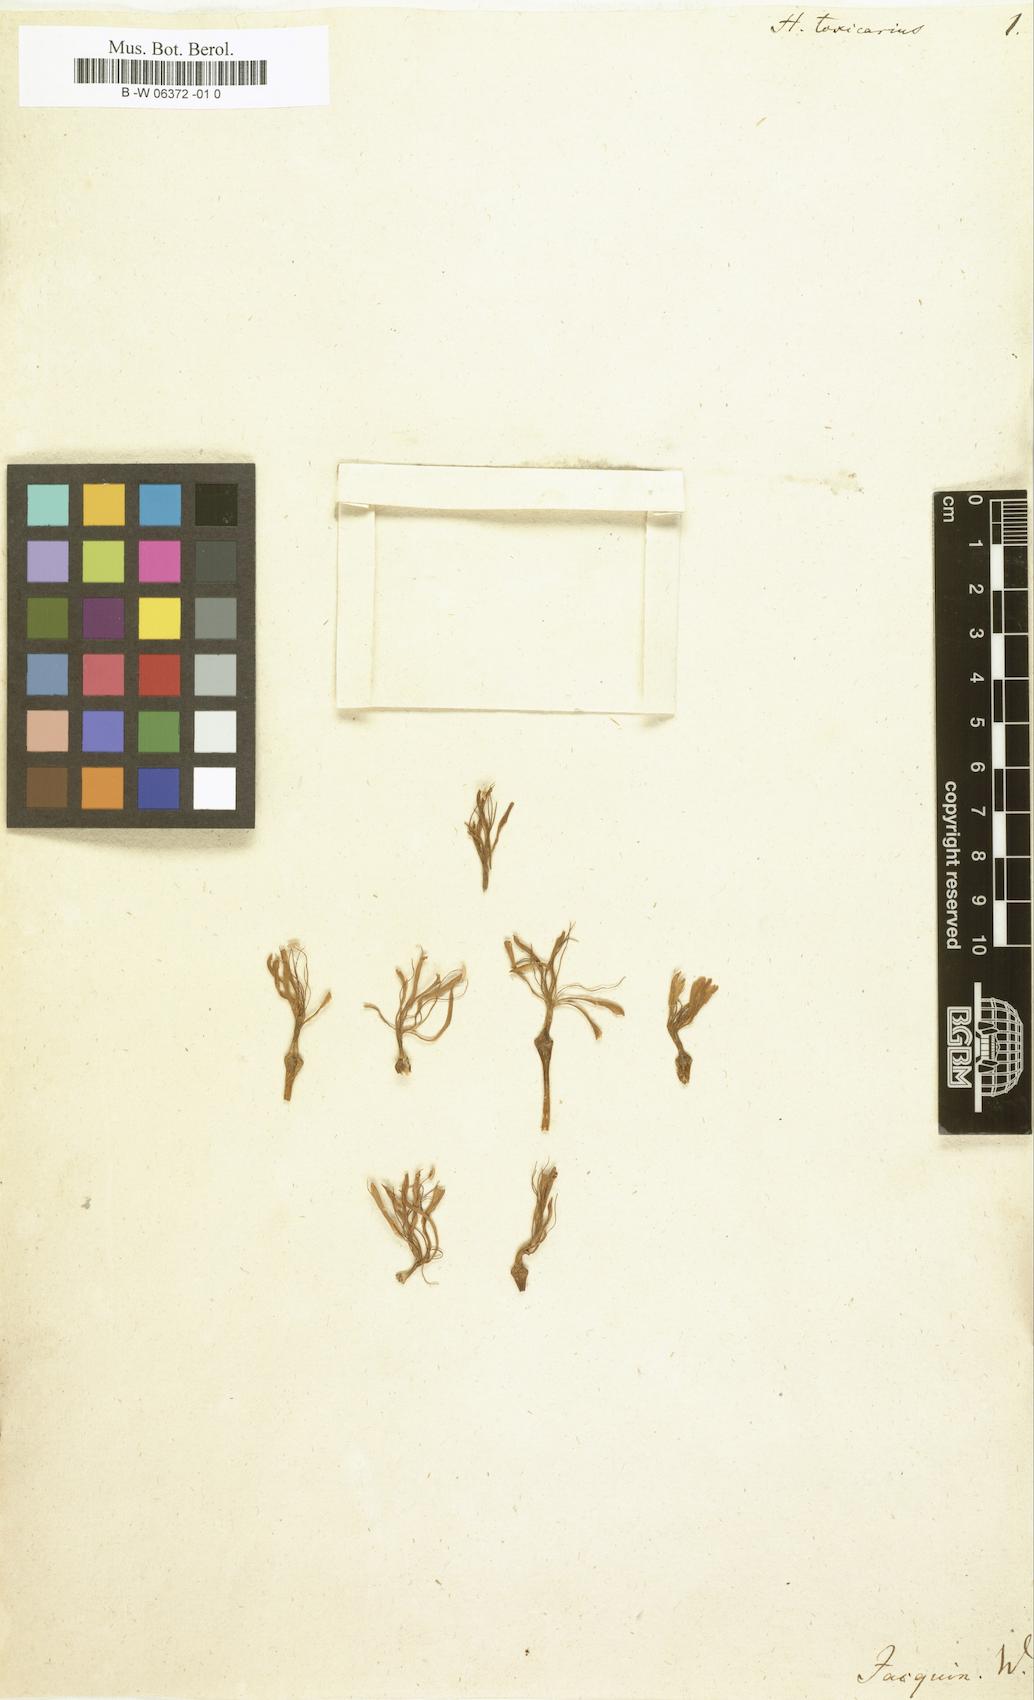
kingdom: Plantae
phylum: Tracheophyta
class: Liliopsida
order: Asparagales
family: Amaryllidaceae
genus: Boophone
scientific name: Boophone disticha
